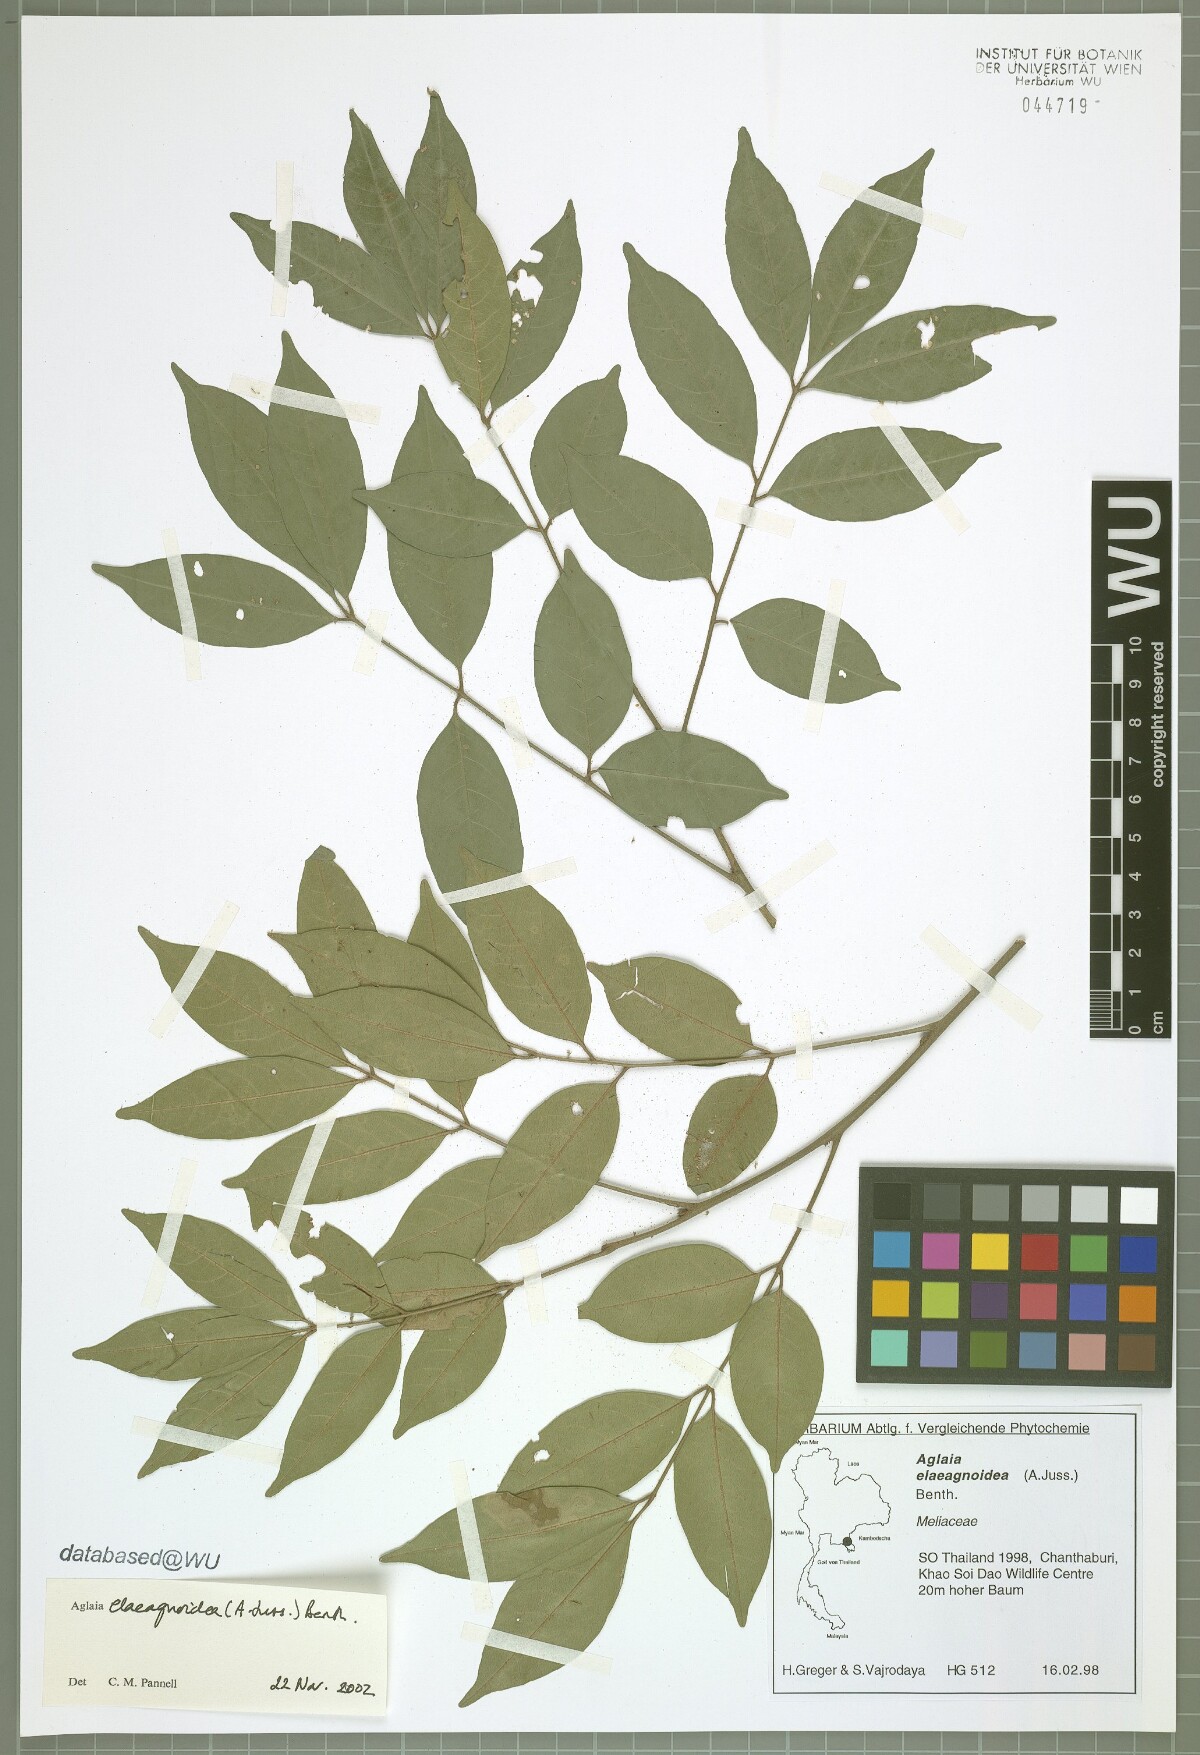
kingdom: Plantae
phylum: Tracheophyta
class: Magnoliopsida
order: Sapindales
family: Meliaceae
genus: Aglaia
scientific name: Aglaia elaeagnoidea
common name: Droopyleaf
